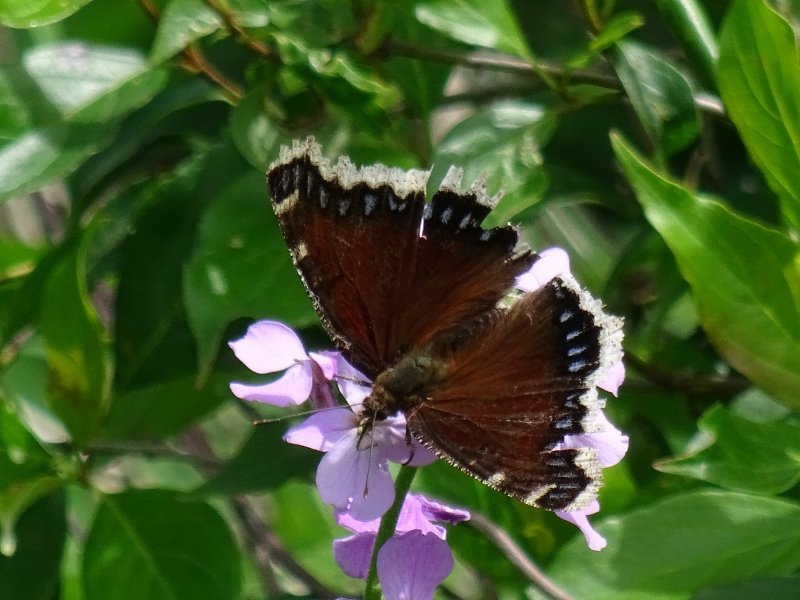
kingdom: Animalia
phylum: Arthropoda
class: Insecta
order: Lepidoptera
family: Nymphalidae
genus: Nymphalis
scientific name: Nymphalis antiopa
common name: Mourning Cloak
